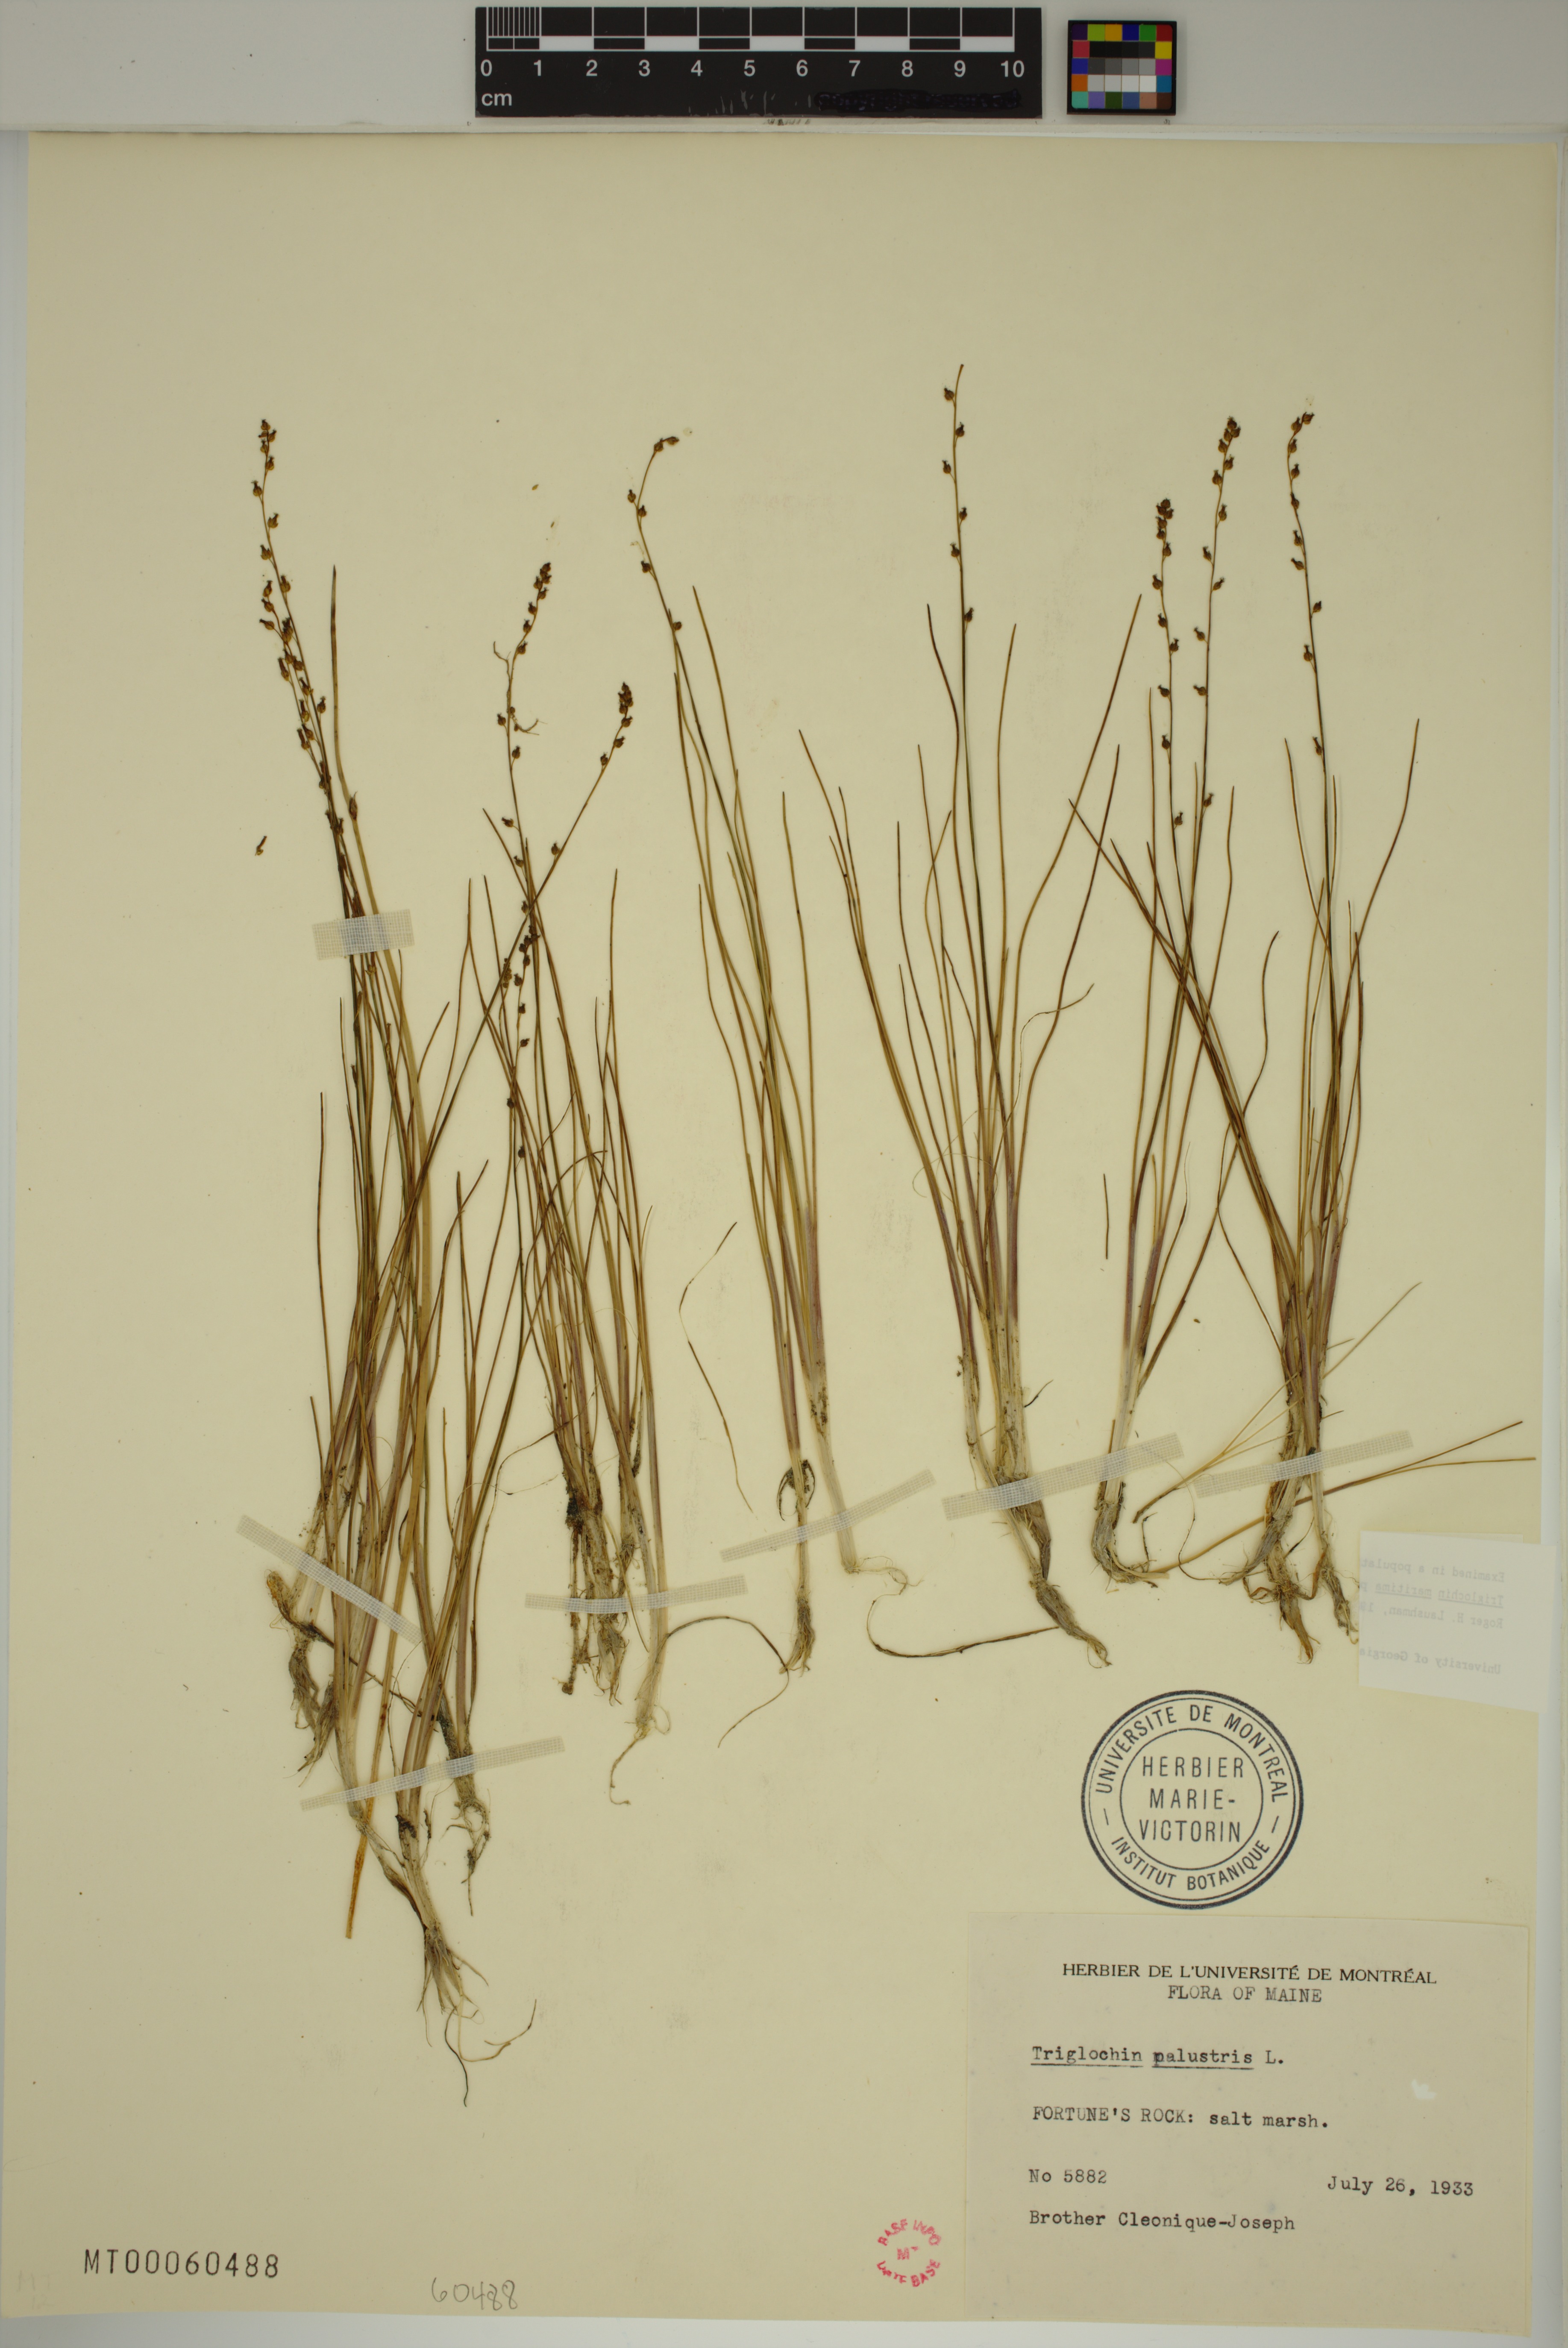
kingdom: Plantae
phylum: Tracheophyta
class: Liliopsida
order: Alismatales
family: Juncaginaceae
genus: Triglochin
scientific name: Triglochin palustris
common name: Marsh arrowgrass
